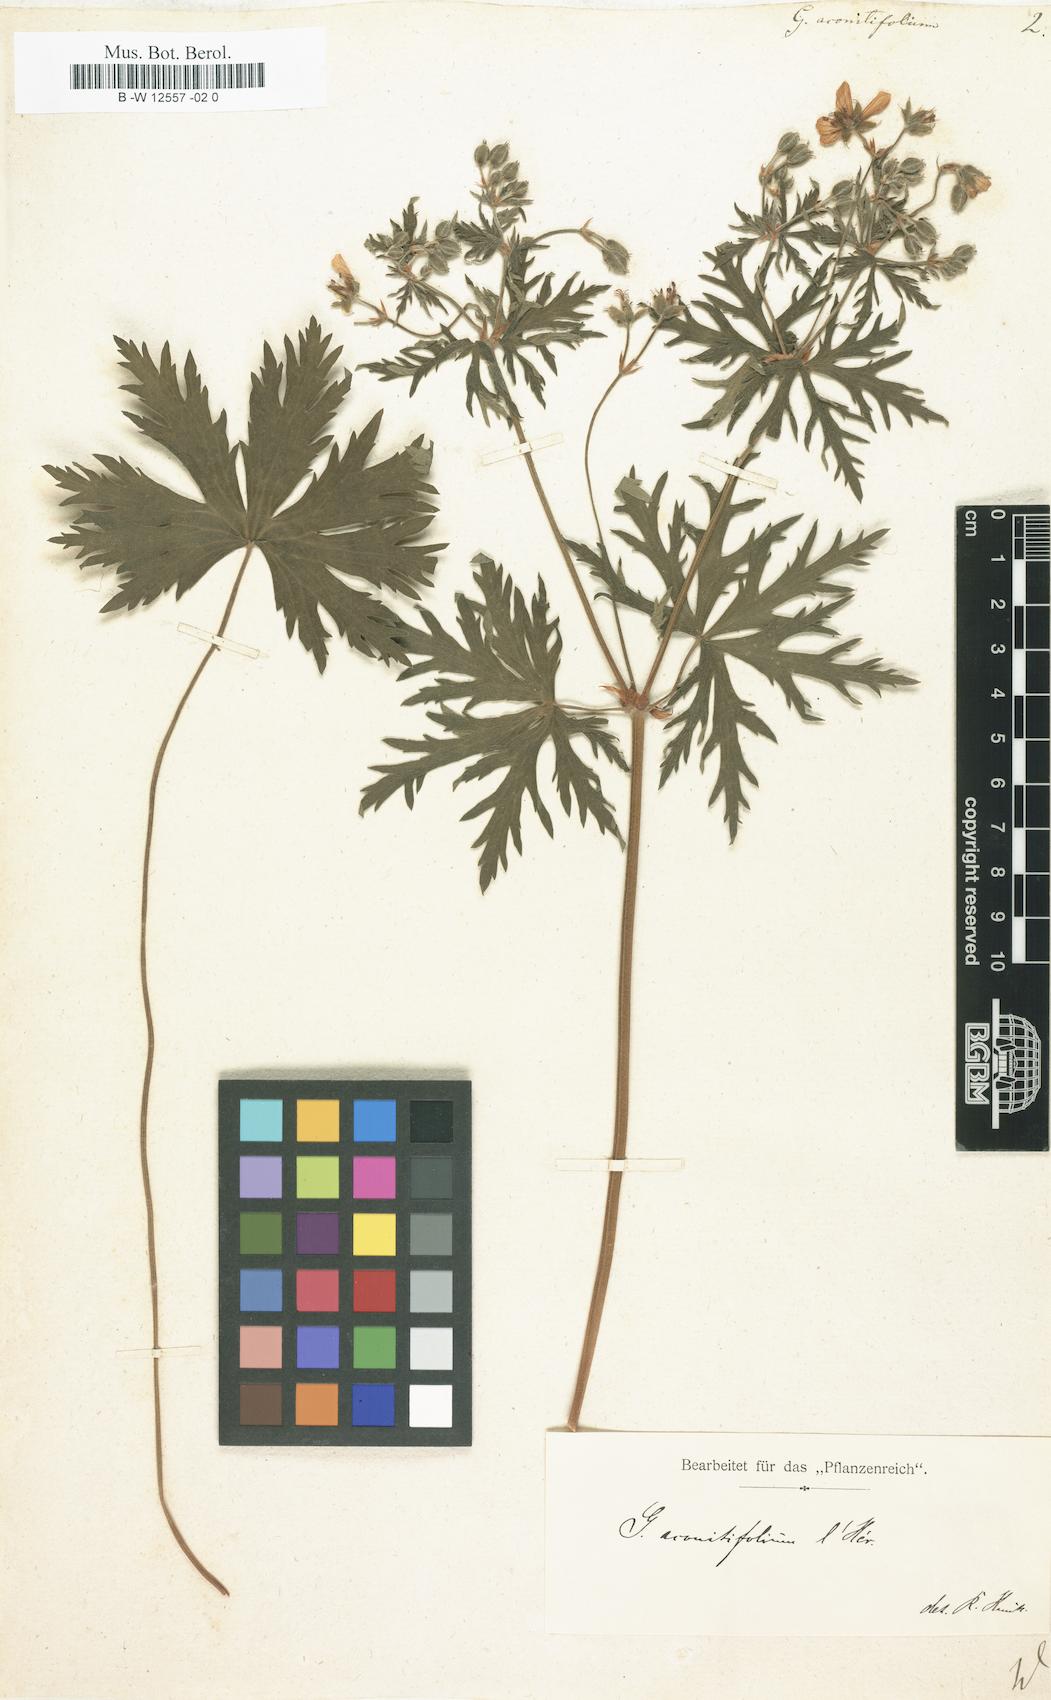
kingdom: Plantae
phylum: Tracheophyta
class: Magnoliopsida
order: Geraniales
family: Geraniaceae
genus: Geranium
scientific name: Geranium aconitifolium
